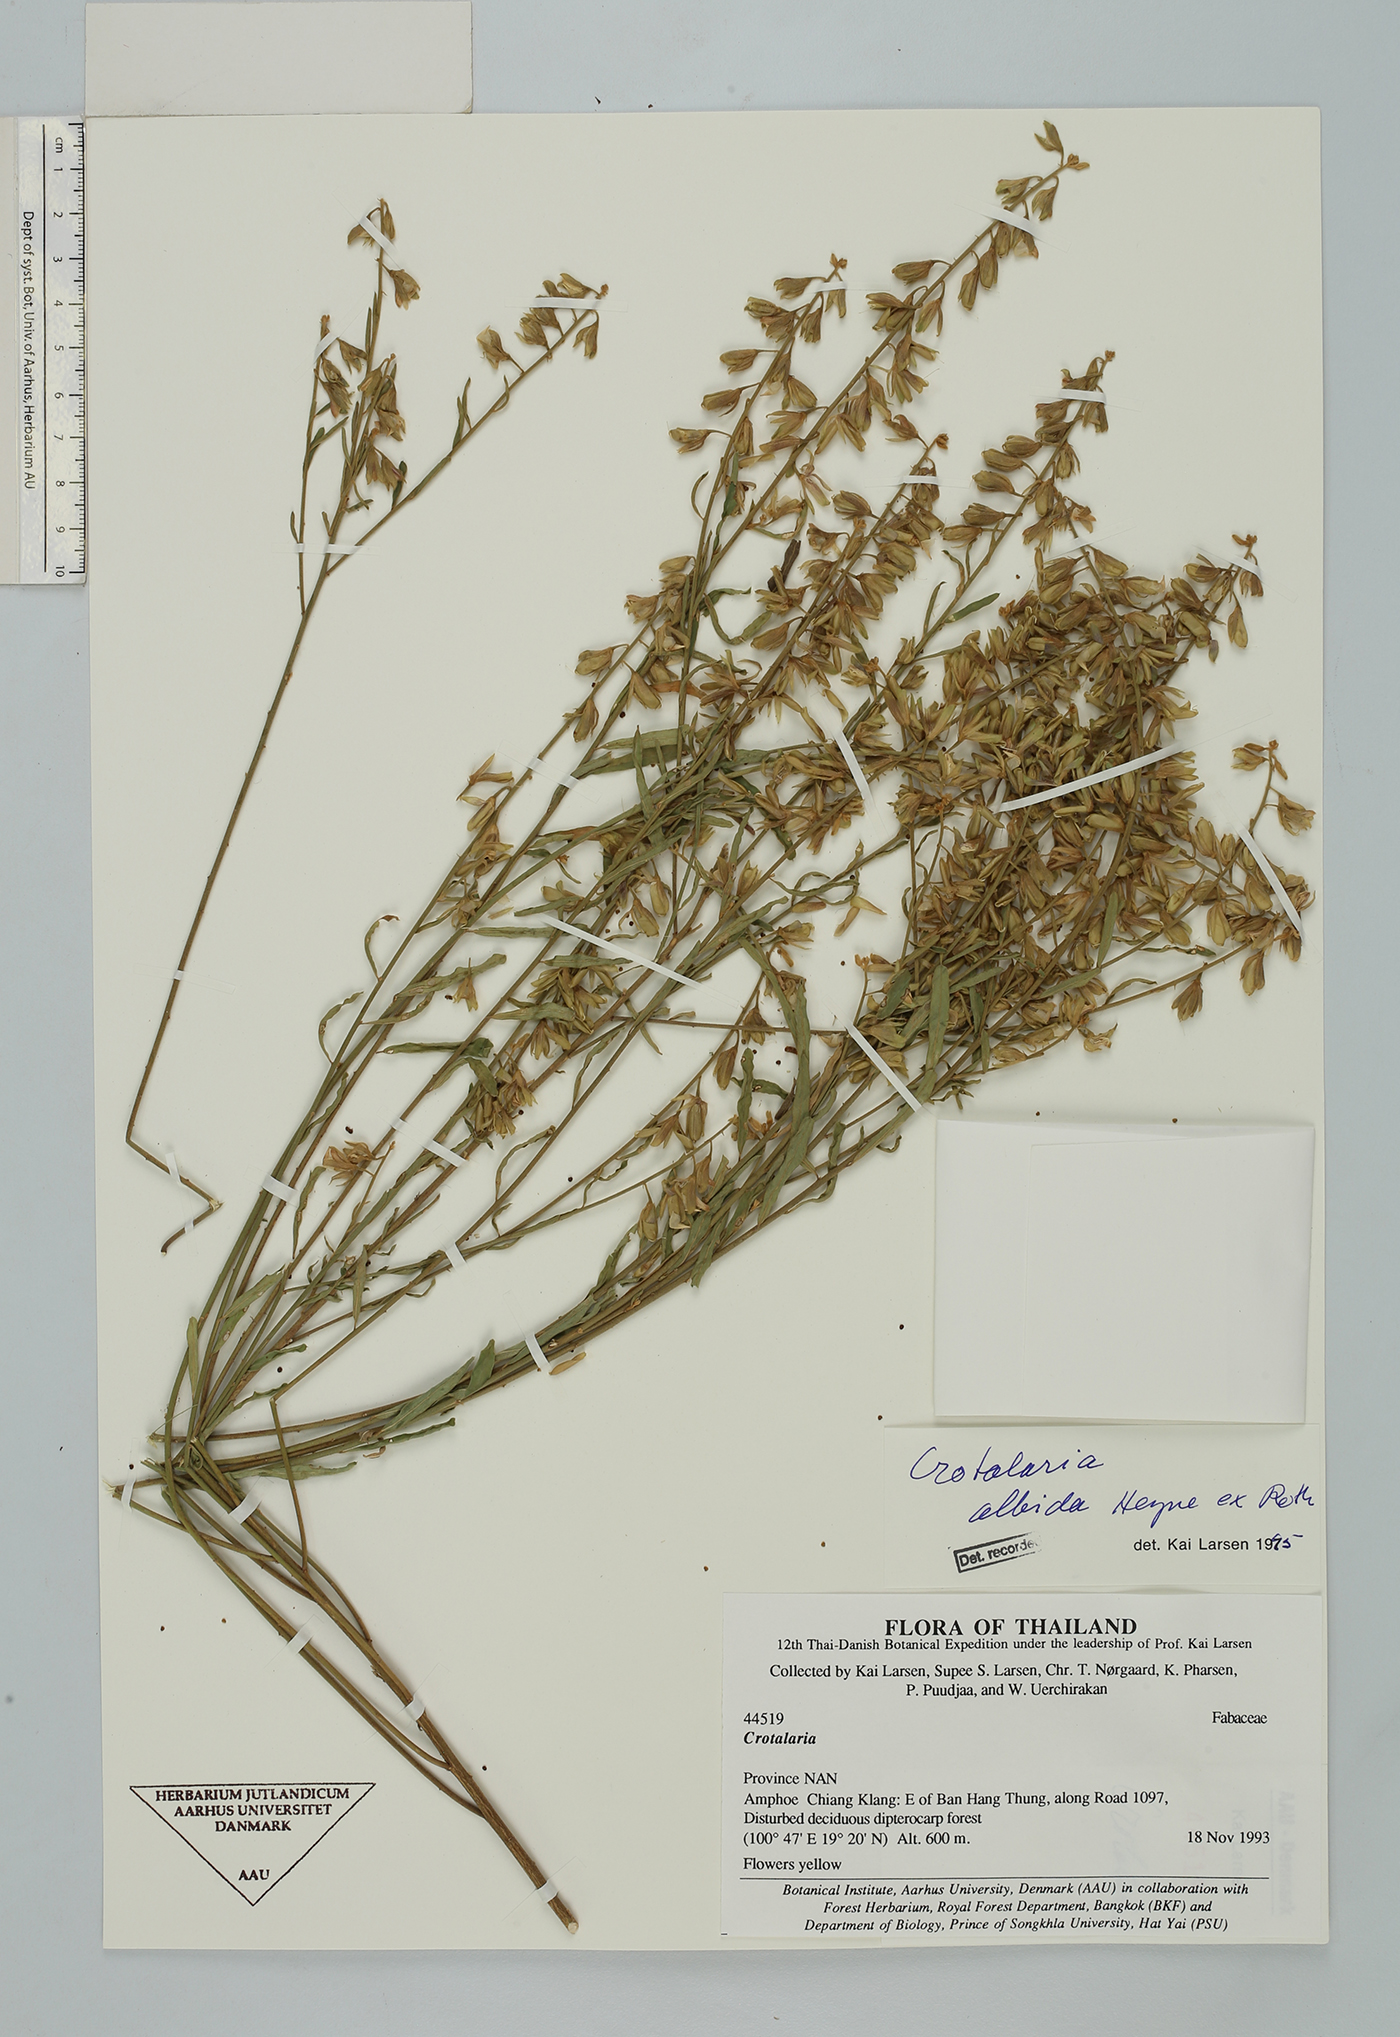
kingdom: Plantae
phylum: Tracheophyta
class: Magnoliopsida
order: Fabales
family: Fabaceae
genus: Crotalaria
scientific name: Crotalaria albida
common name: Taiwan crotalaria
